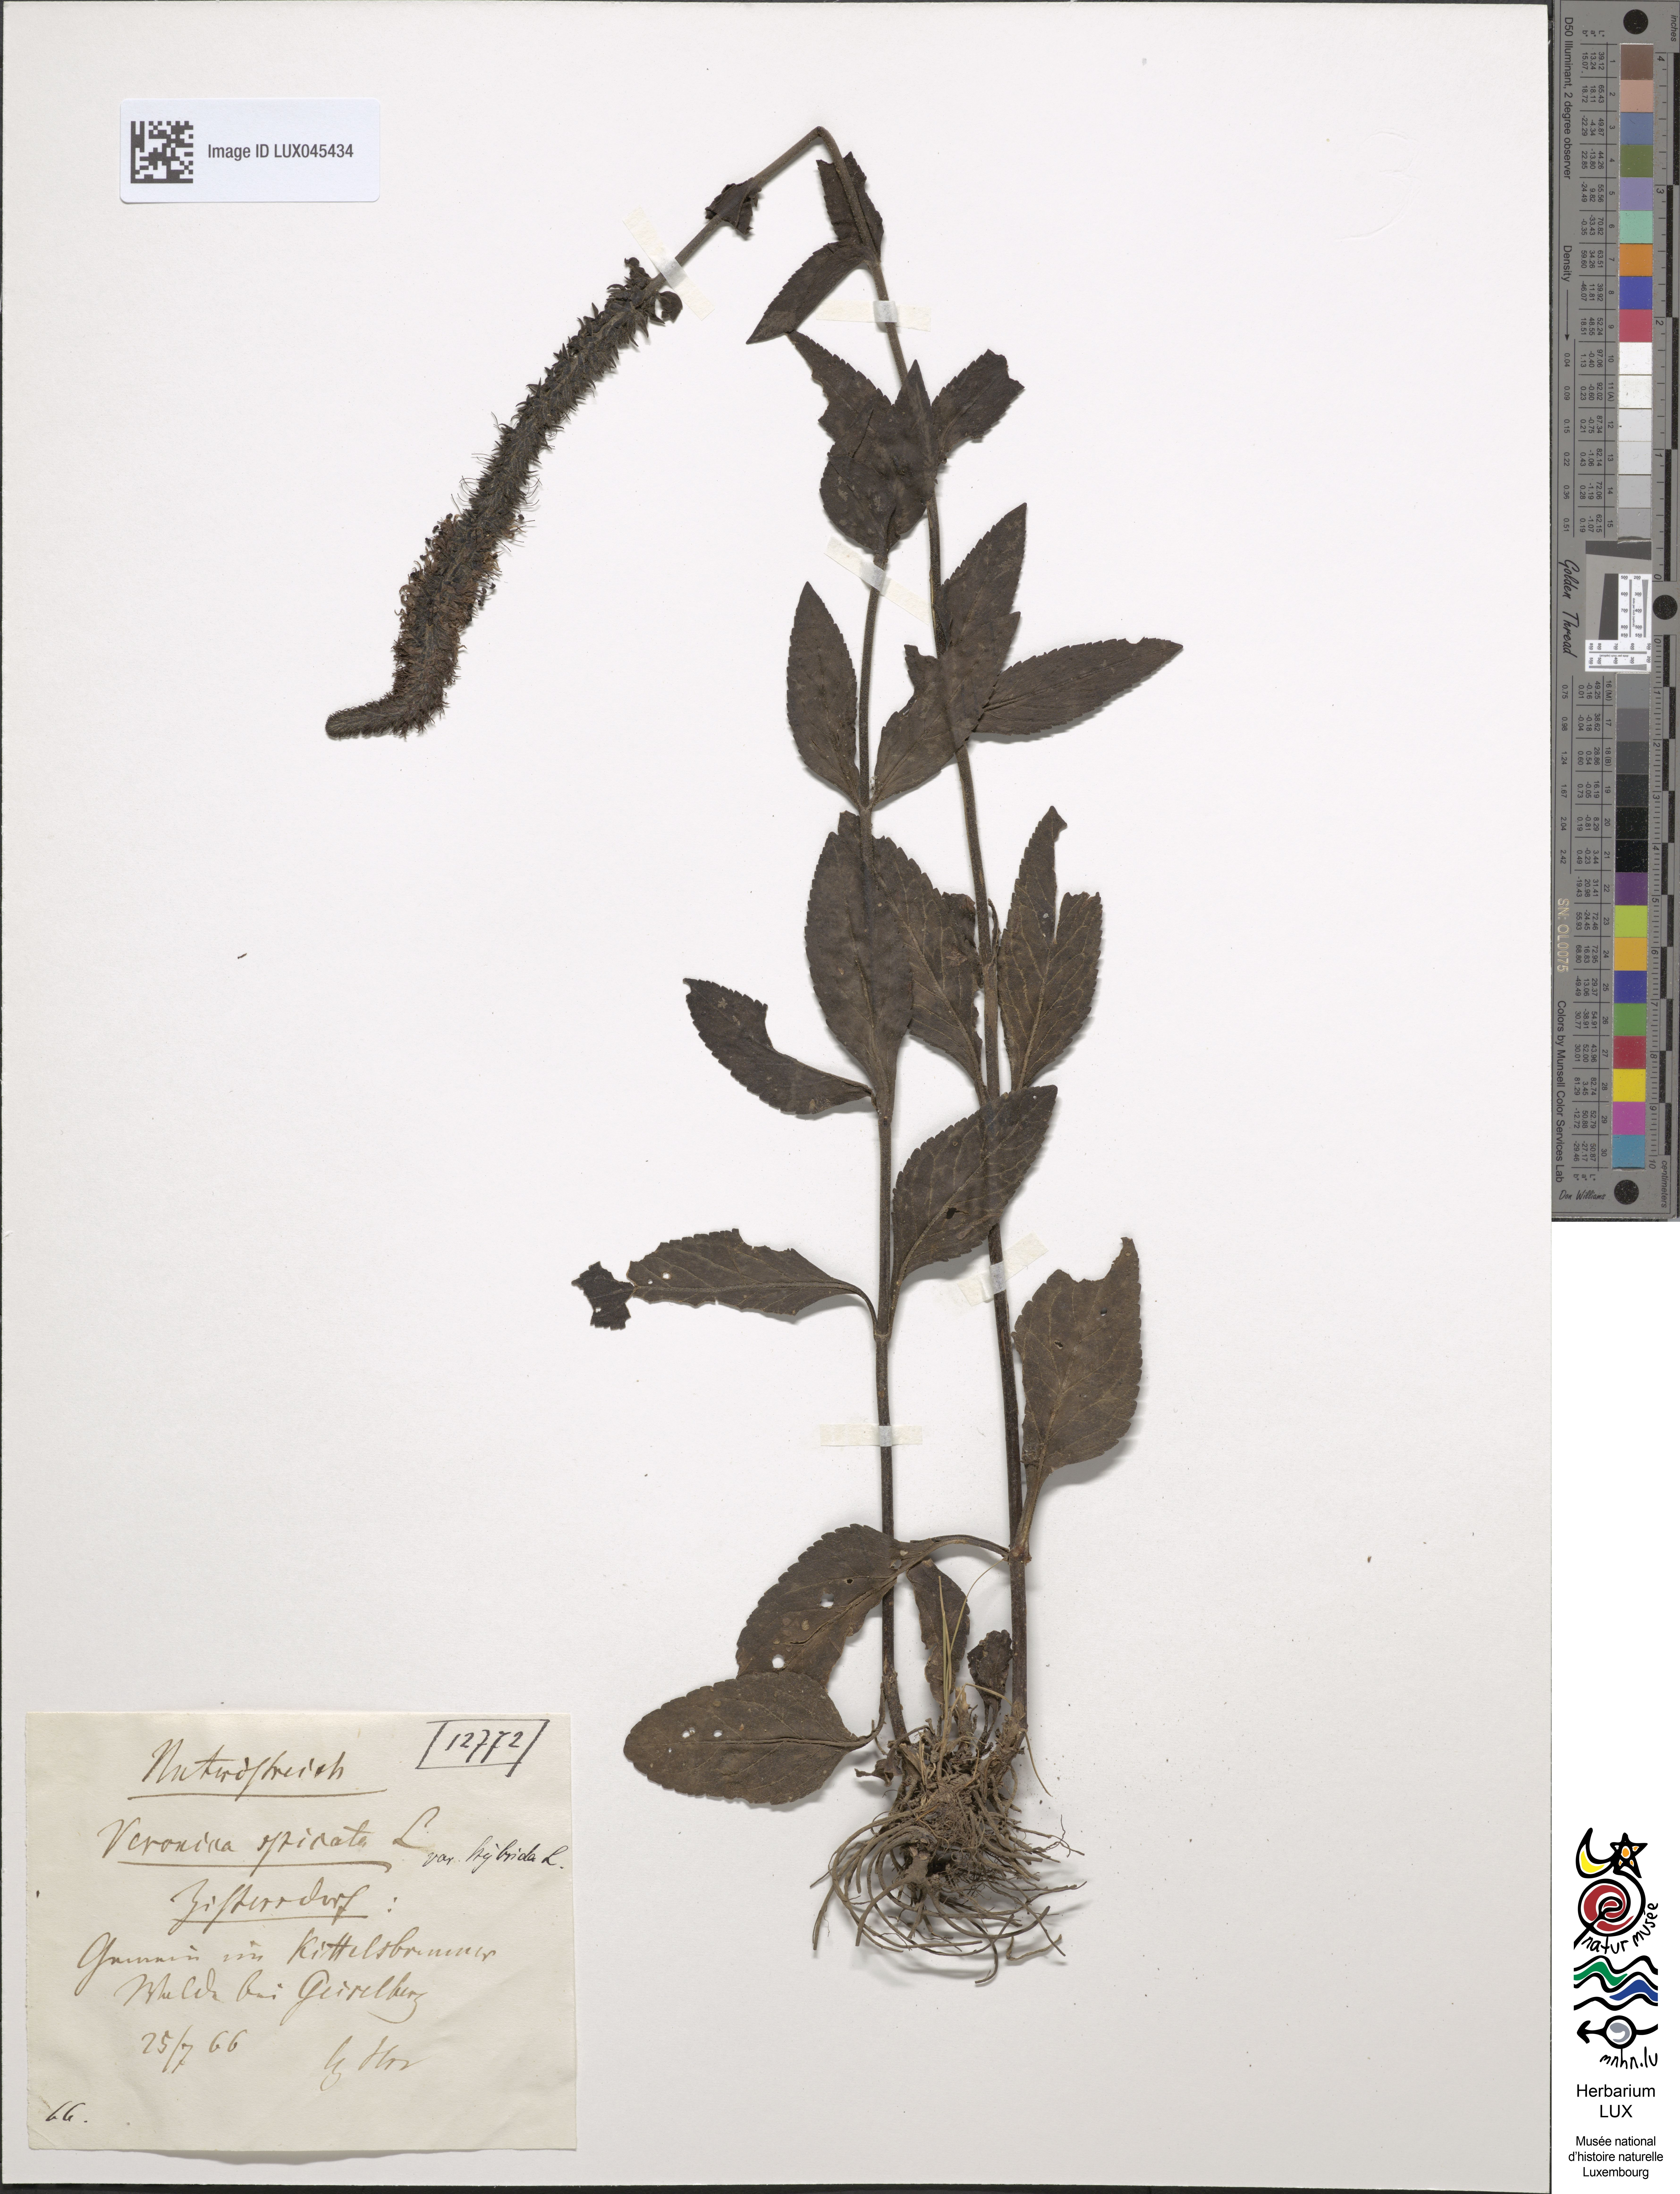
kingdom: Plantae
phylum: Tracheophyta
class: Magnoliopsida
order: Lamiales
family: Plantaginaceae
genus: Veronica
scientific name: Veronica spicata
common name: Spiked speedwell
